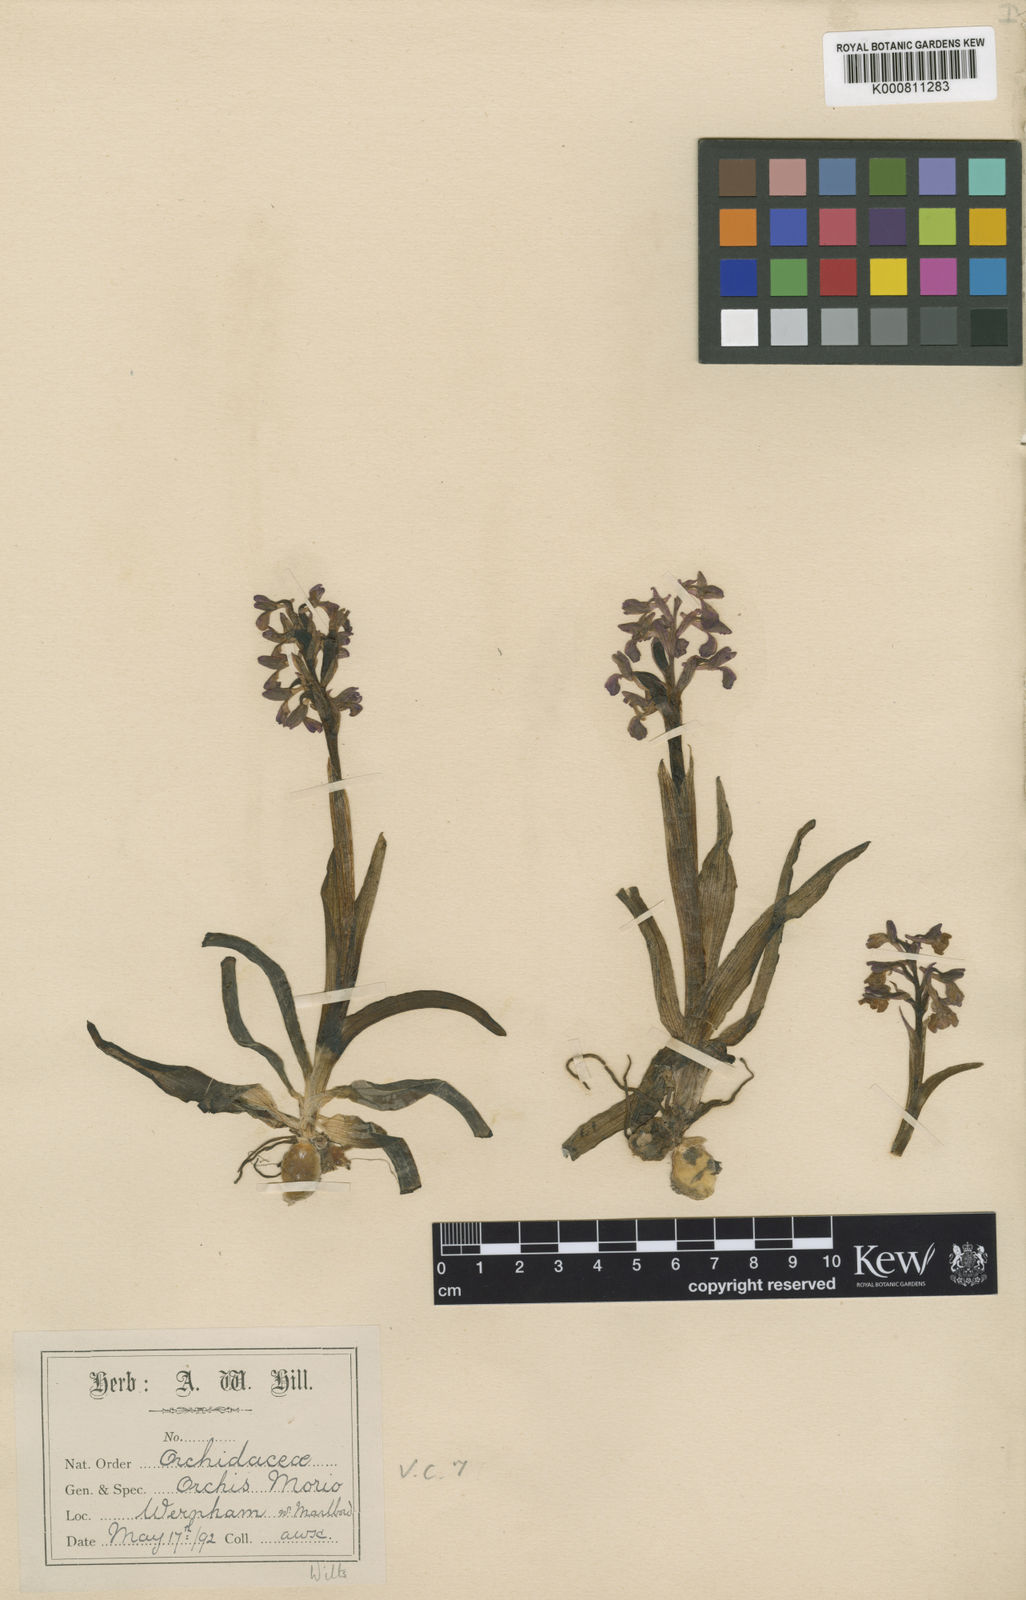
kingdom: Plantae
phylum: Tracheophyta
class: Liliopsida
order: Asparagales
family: Orchidaceae
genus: Anacamptis
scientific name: Anacamptis morio
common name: Green-winged orchid
